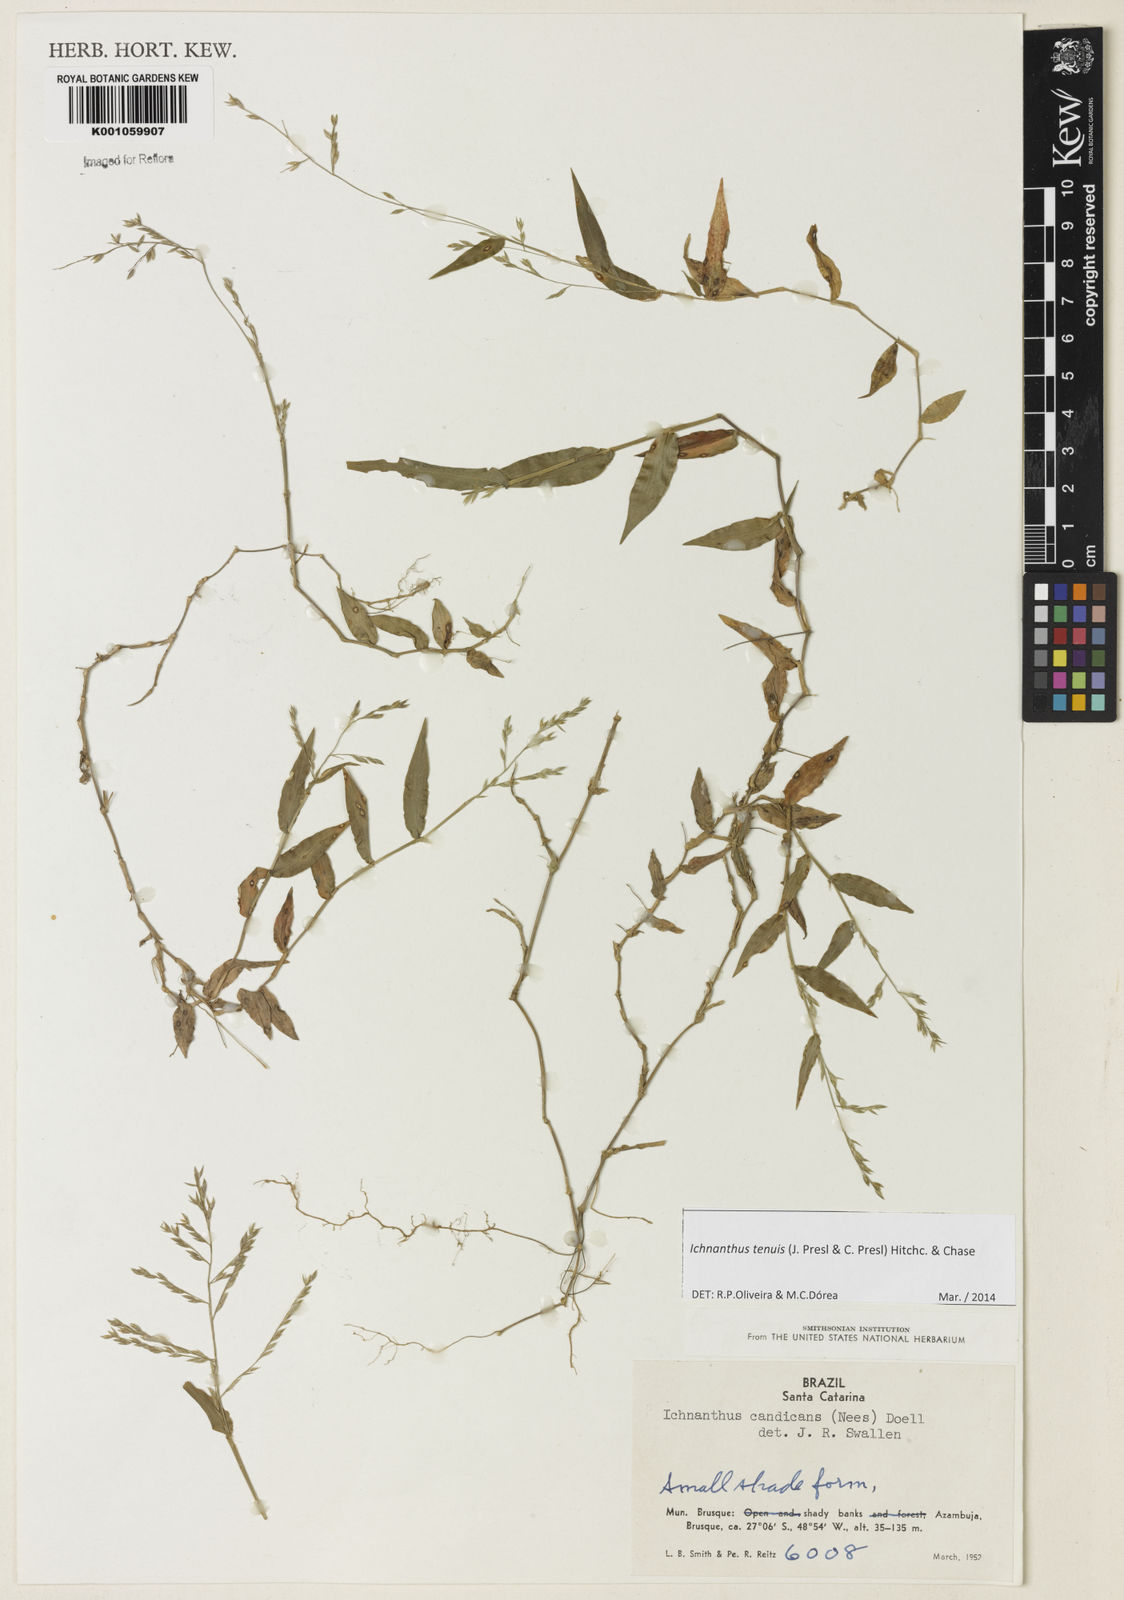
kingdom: Plantae
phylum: Tracheophyta
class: Liliopsida
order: Poales
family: Poaceae
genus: Ichnanthus
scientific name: Ichnanthus tenuis
